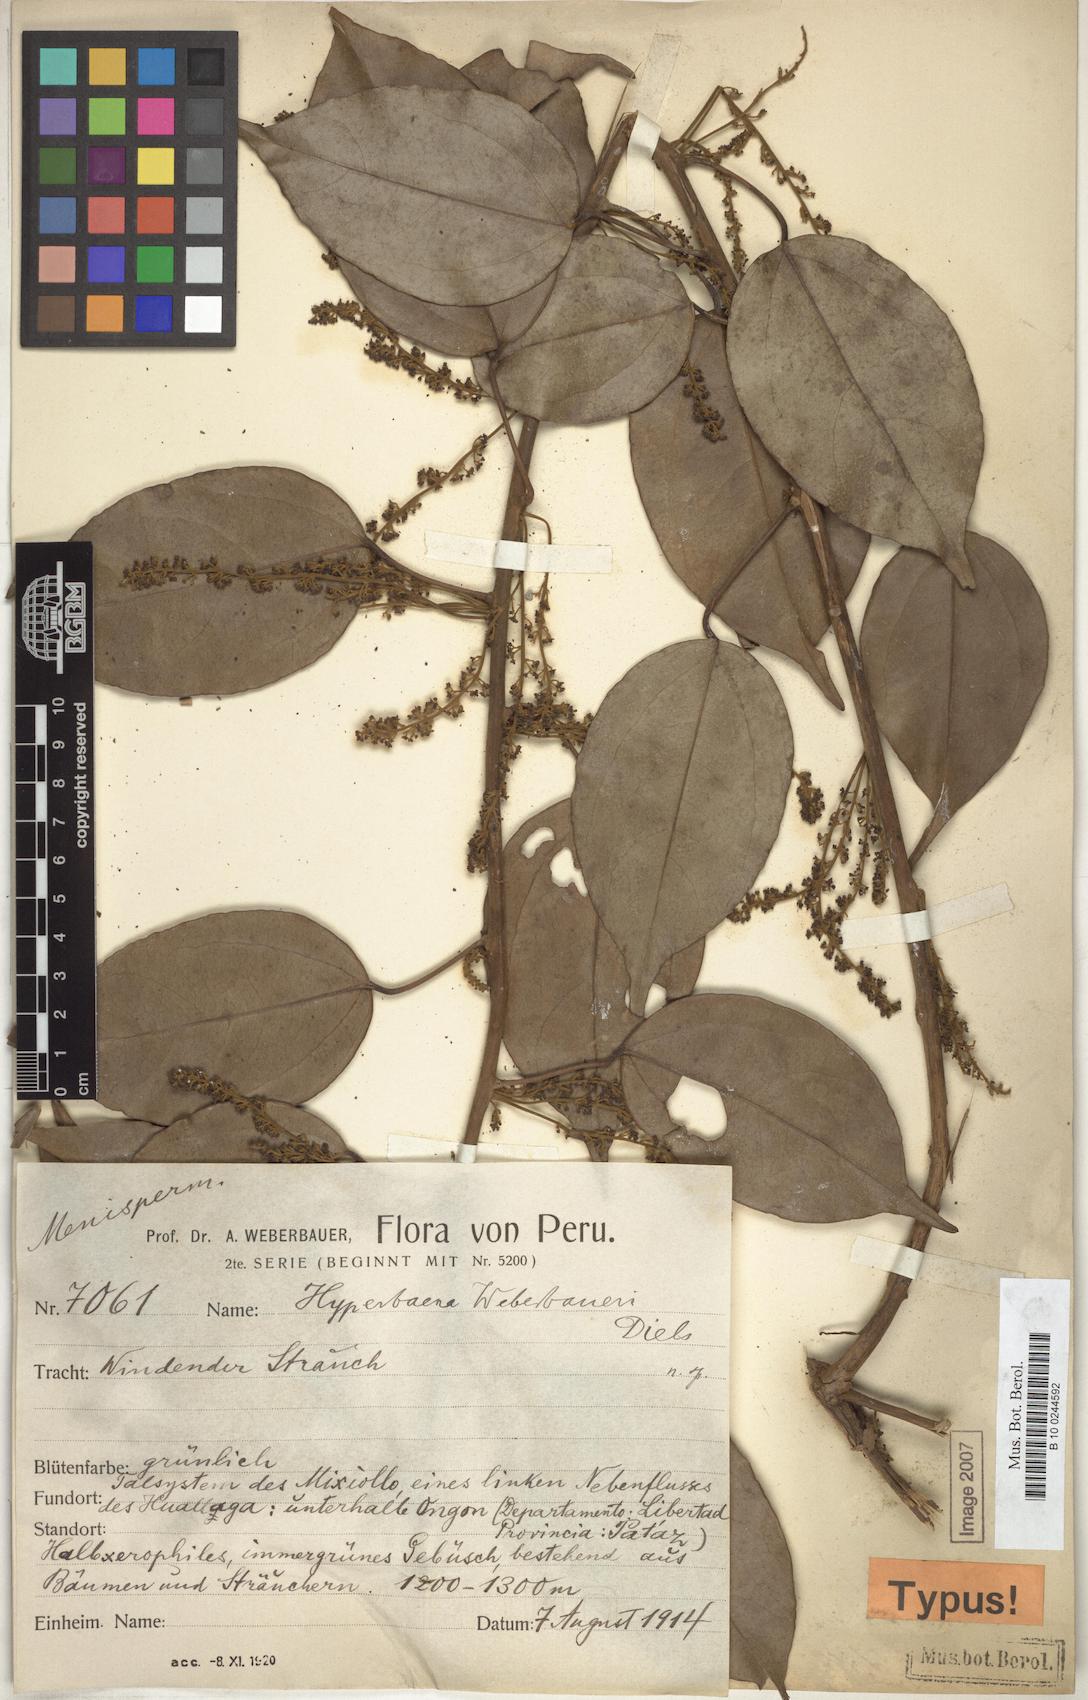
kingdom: Plantae
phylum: Tracheophyta
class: Magnoliopsida
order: Ranunculales
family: Menispermaceae
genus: Hyperbaena
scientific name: Hyperbaena
